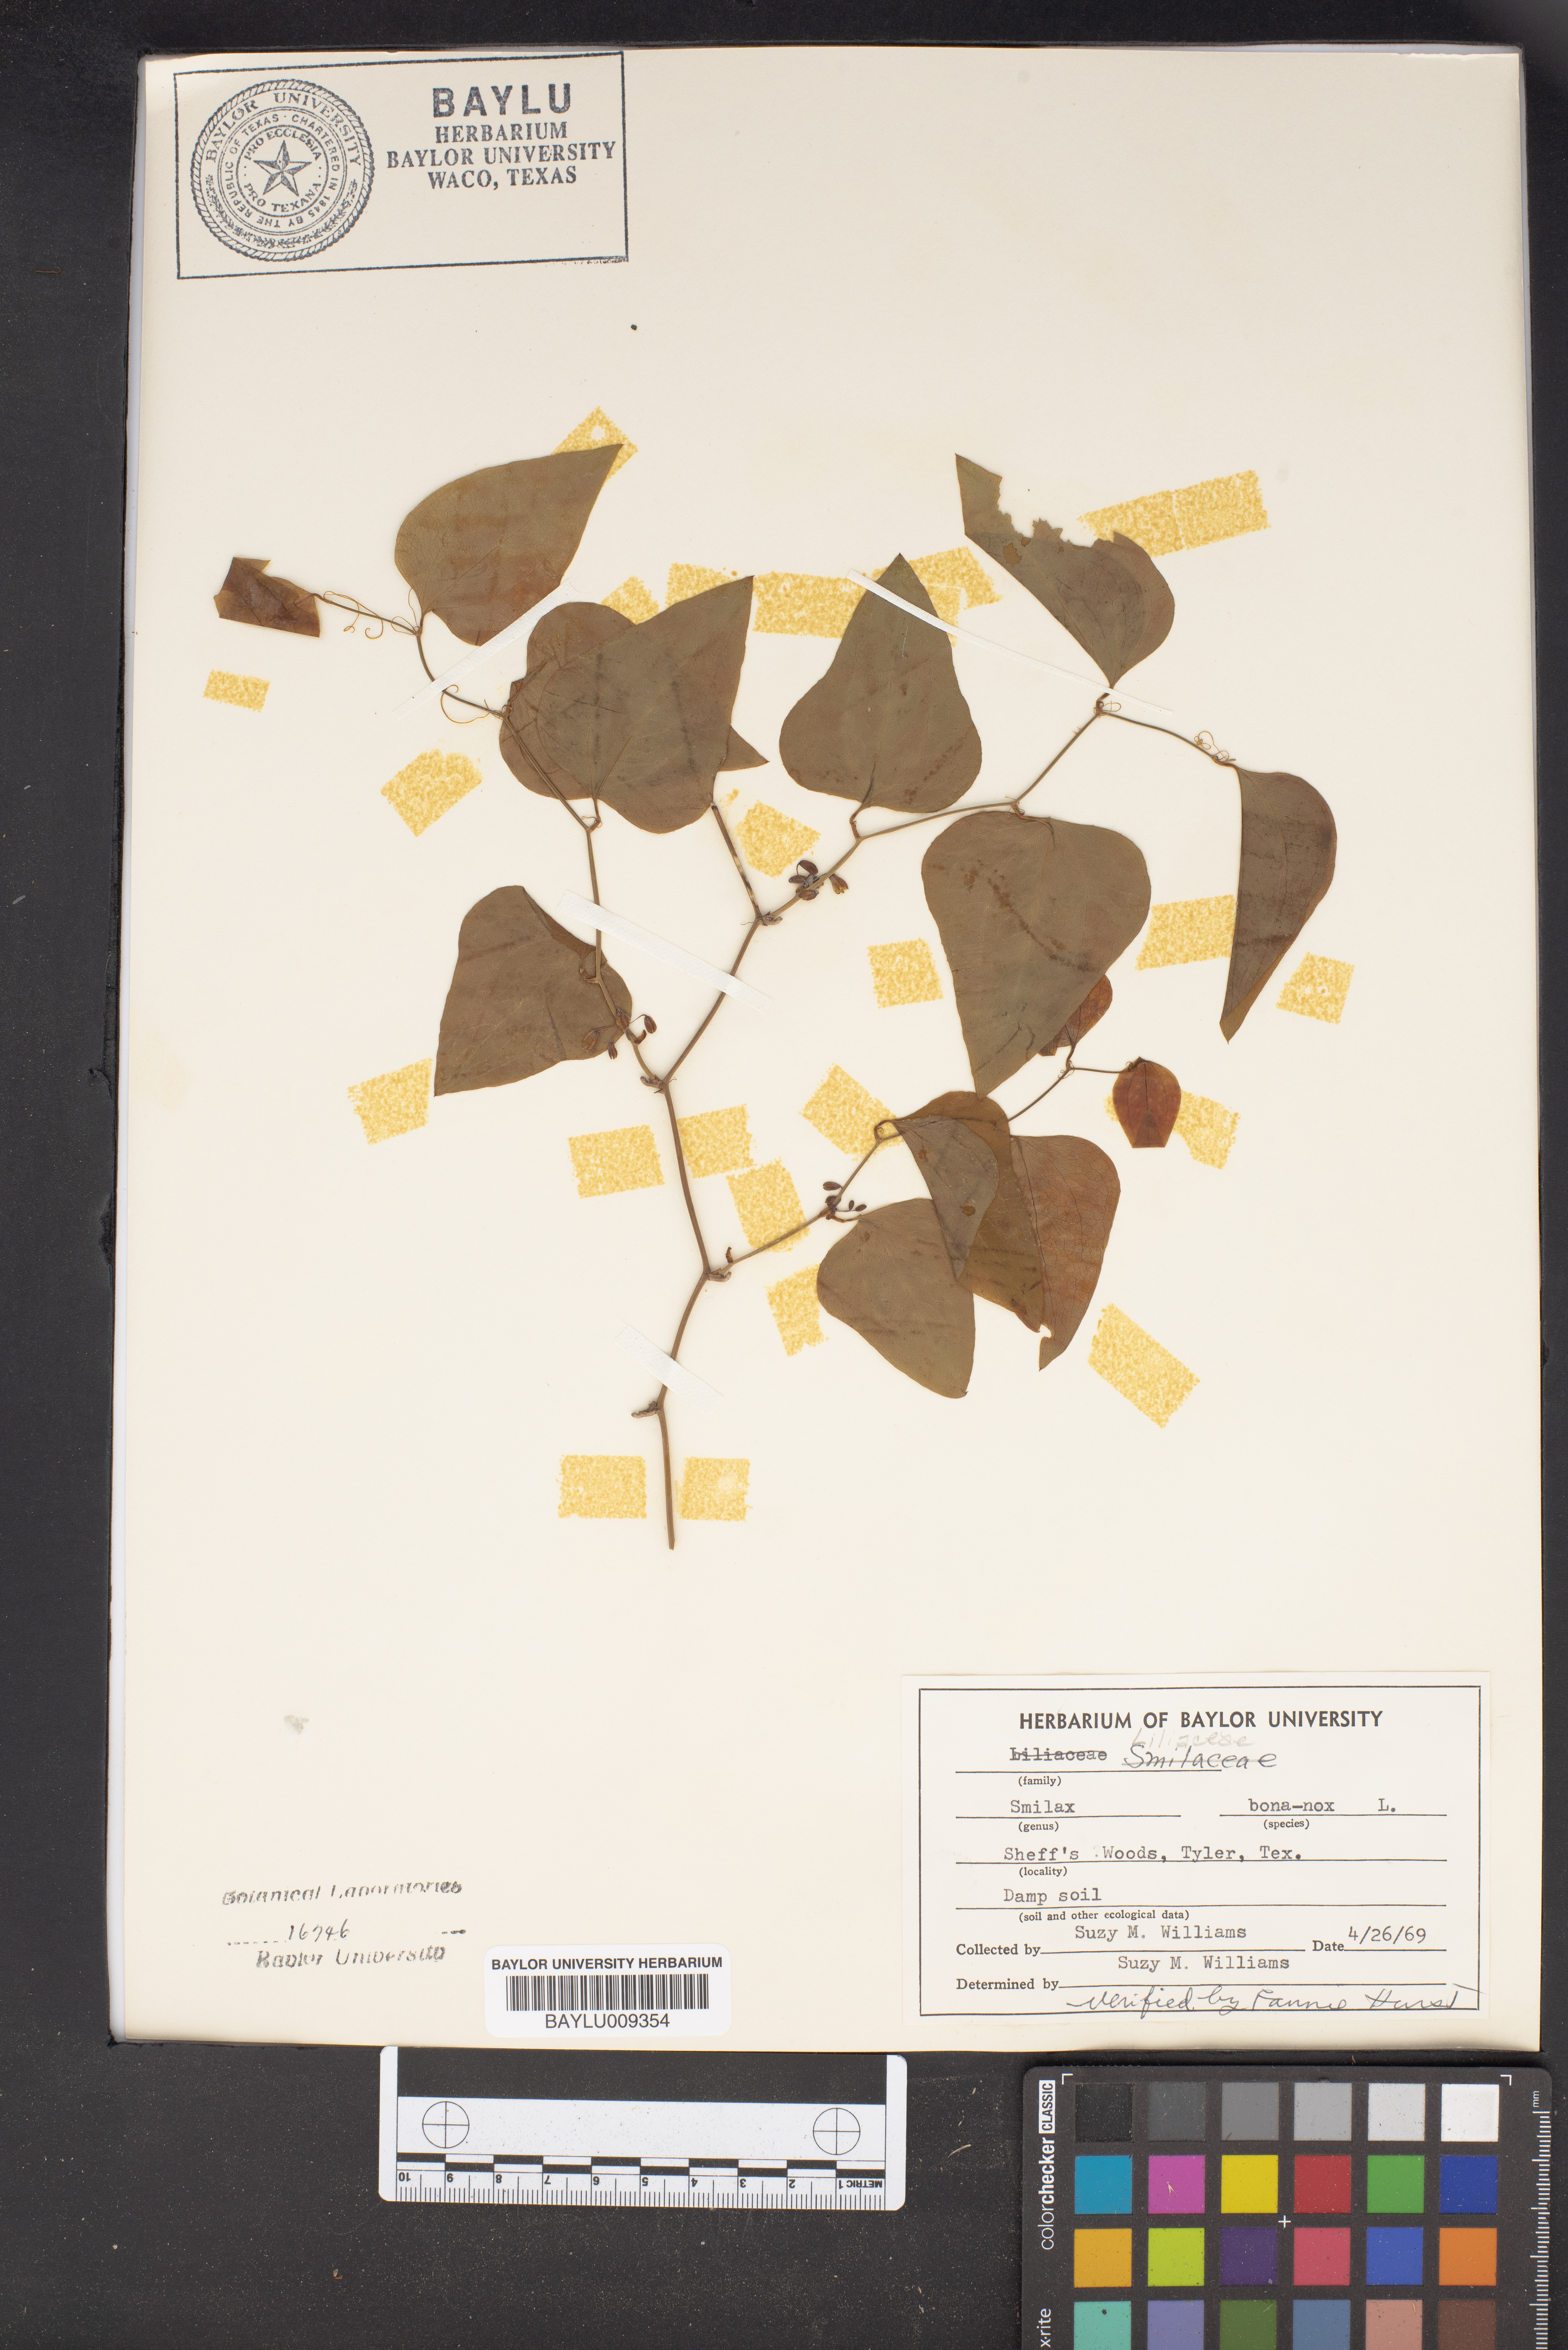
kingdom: Plantae
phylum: Tracheophyta
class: Liliopsida
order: Liliales
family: Smilacaceae
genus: Smilax
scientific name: Smilax bona-nox
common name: Catbrier
